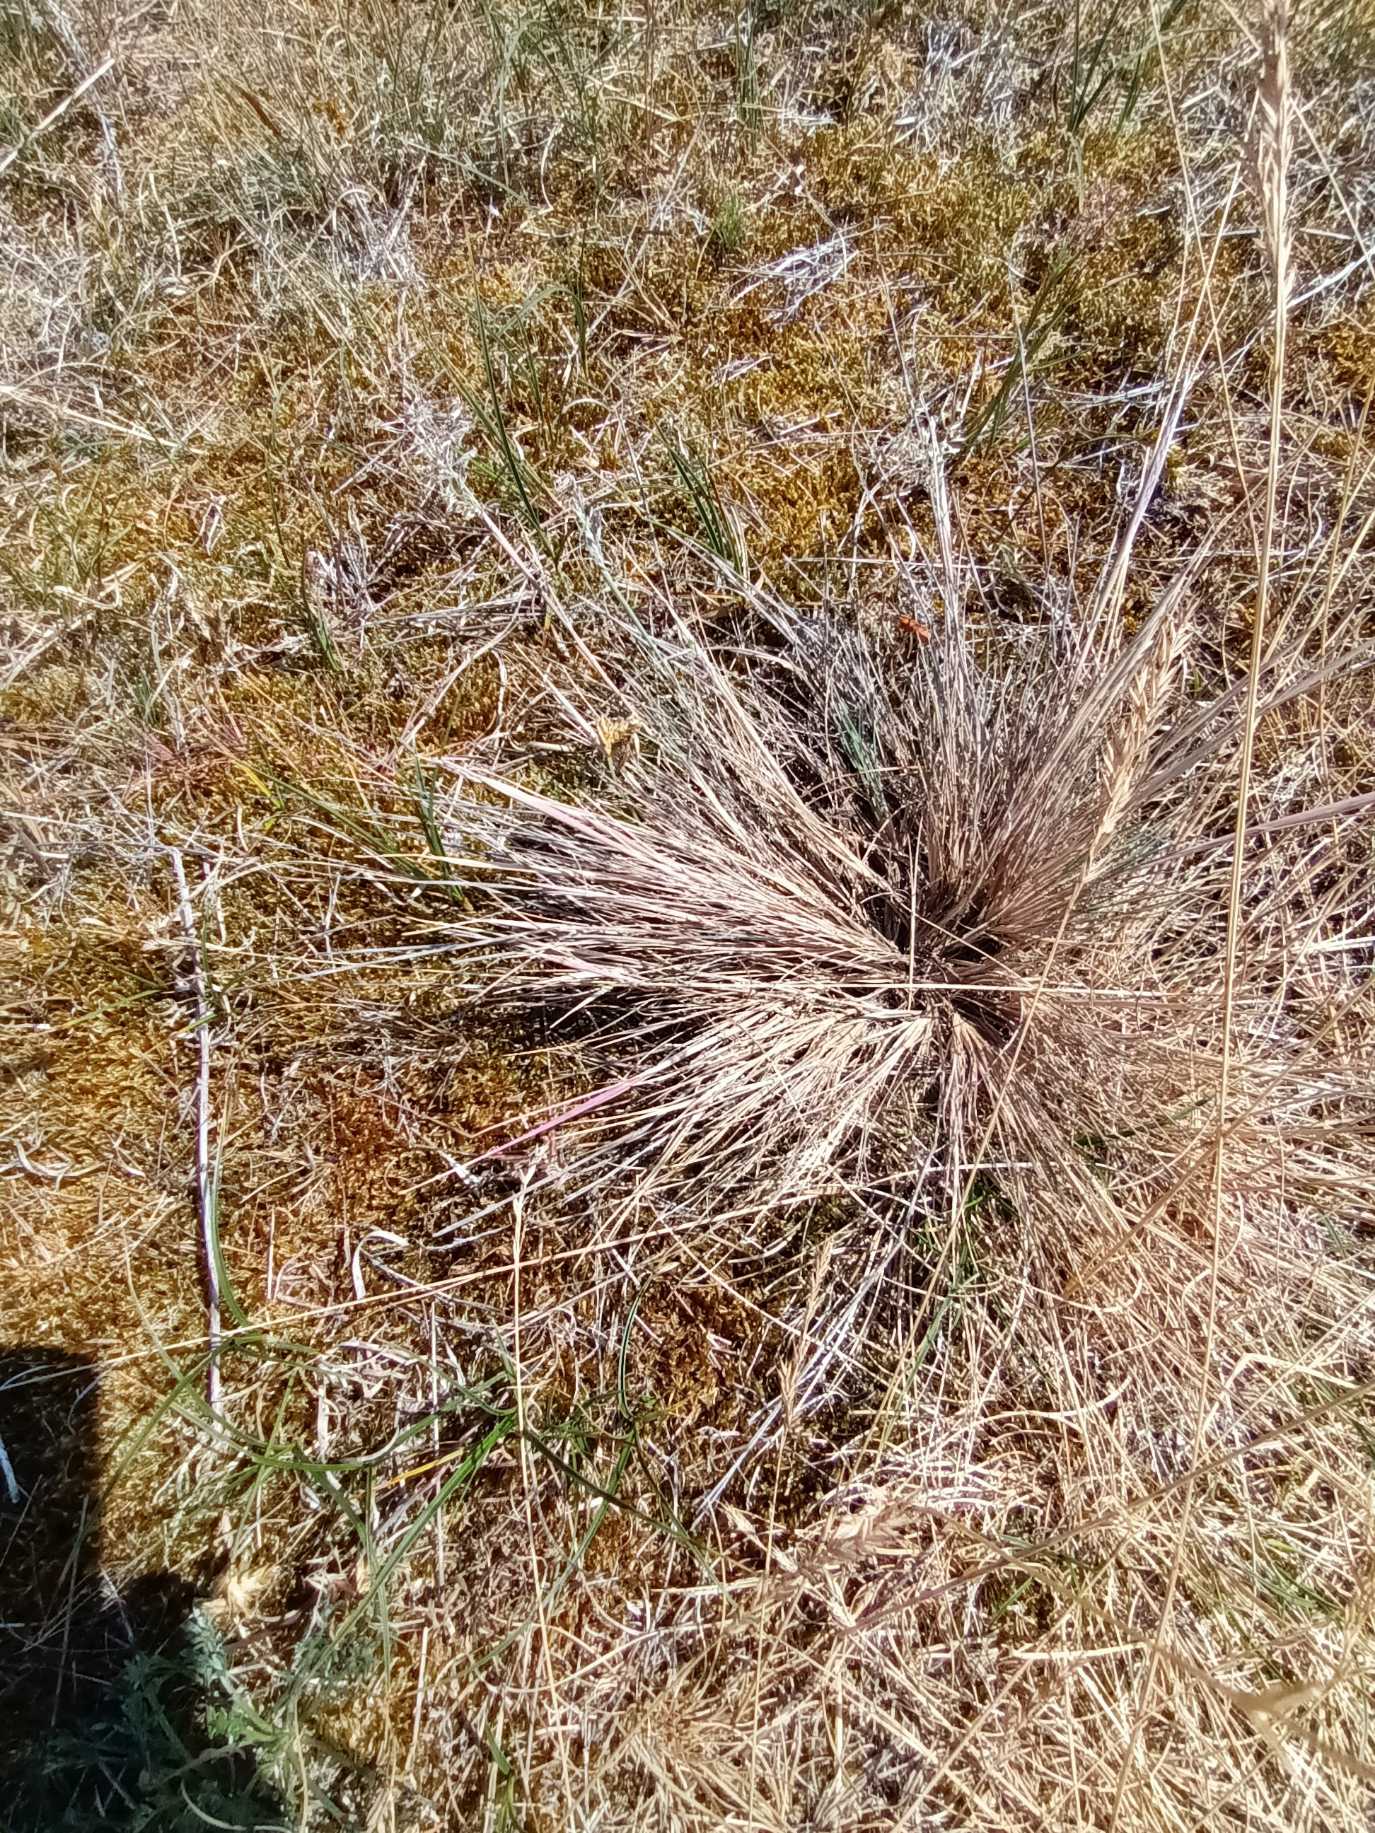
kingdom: Plantae
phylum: Tracheophyta
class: Liliopsida
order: Poales
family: Poaceae
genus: Corynephorus
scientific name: Corynephorus canescens
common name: Sandskæg
